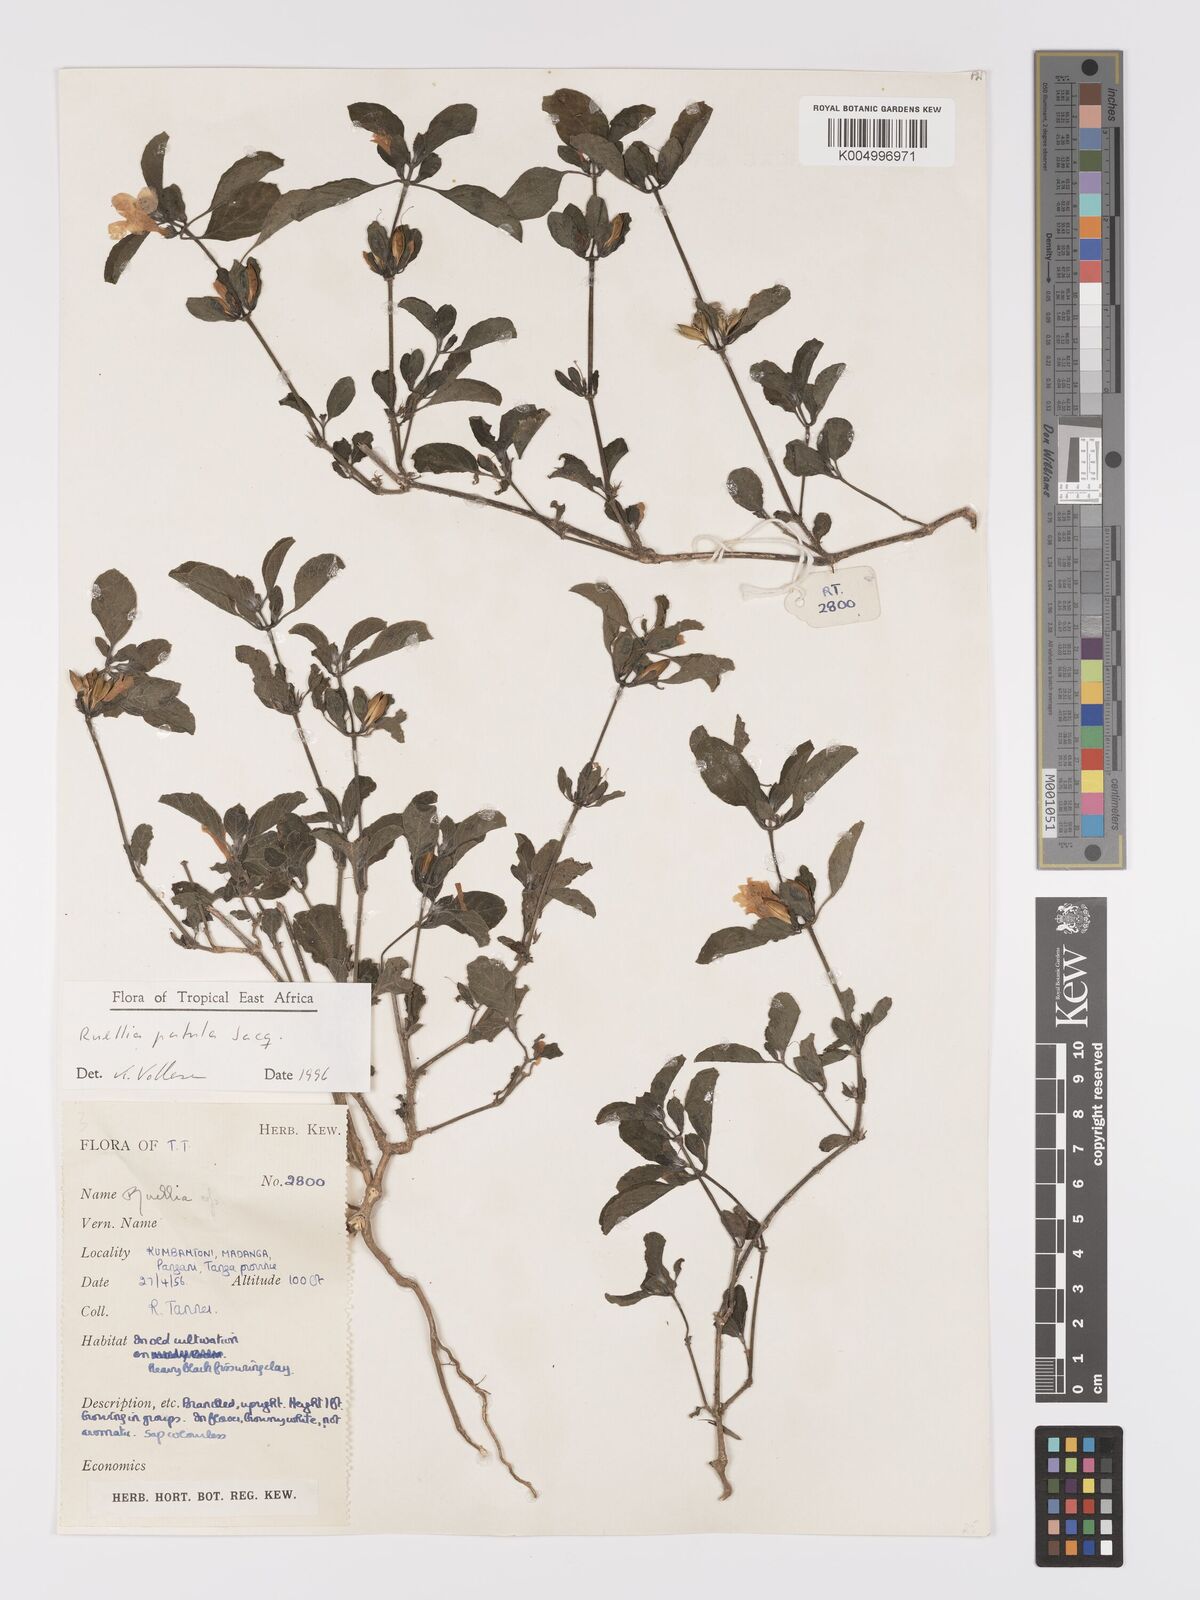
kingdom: Plantae
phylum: Tracheophyta
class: Magnoliopsida
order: Lamiales
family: Acanthaceae
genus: Ruellia
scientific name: Ruellia patula
